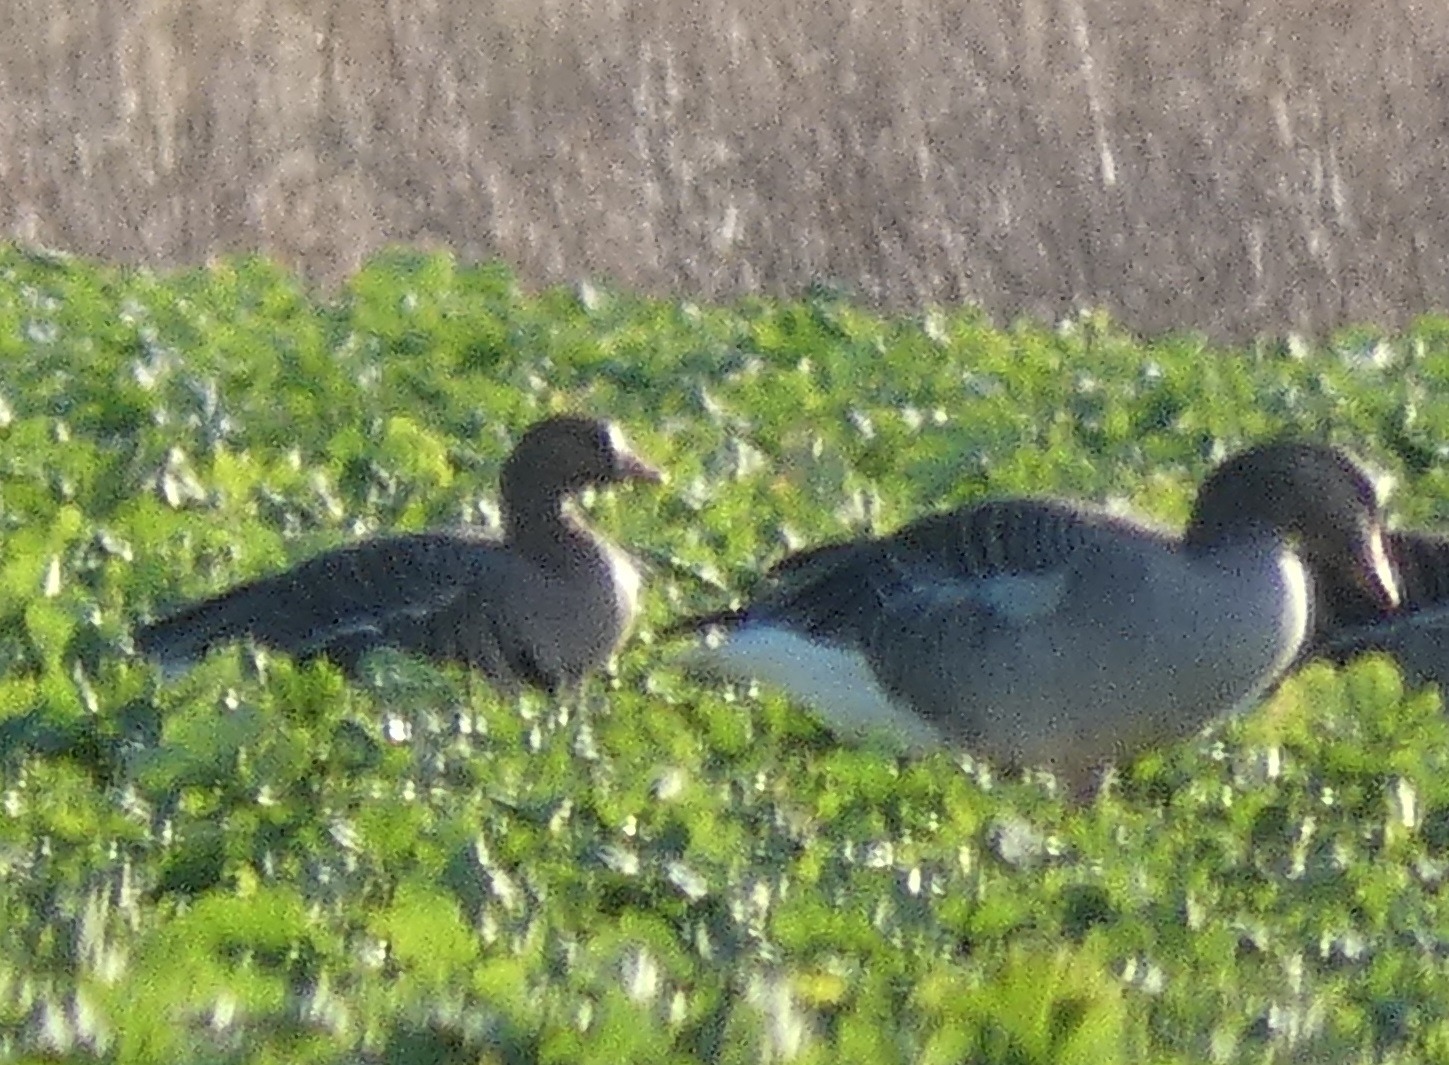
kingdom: Animalia
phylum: Chordata
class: Aves
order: Anseriformes
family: Anatidae
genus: Anser
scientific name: Anser albifrons
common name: Blisgås
